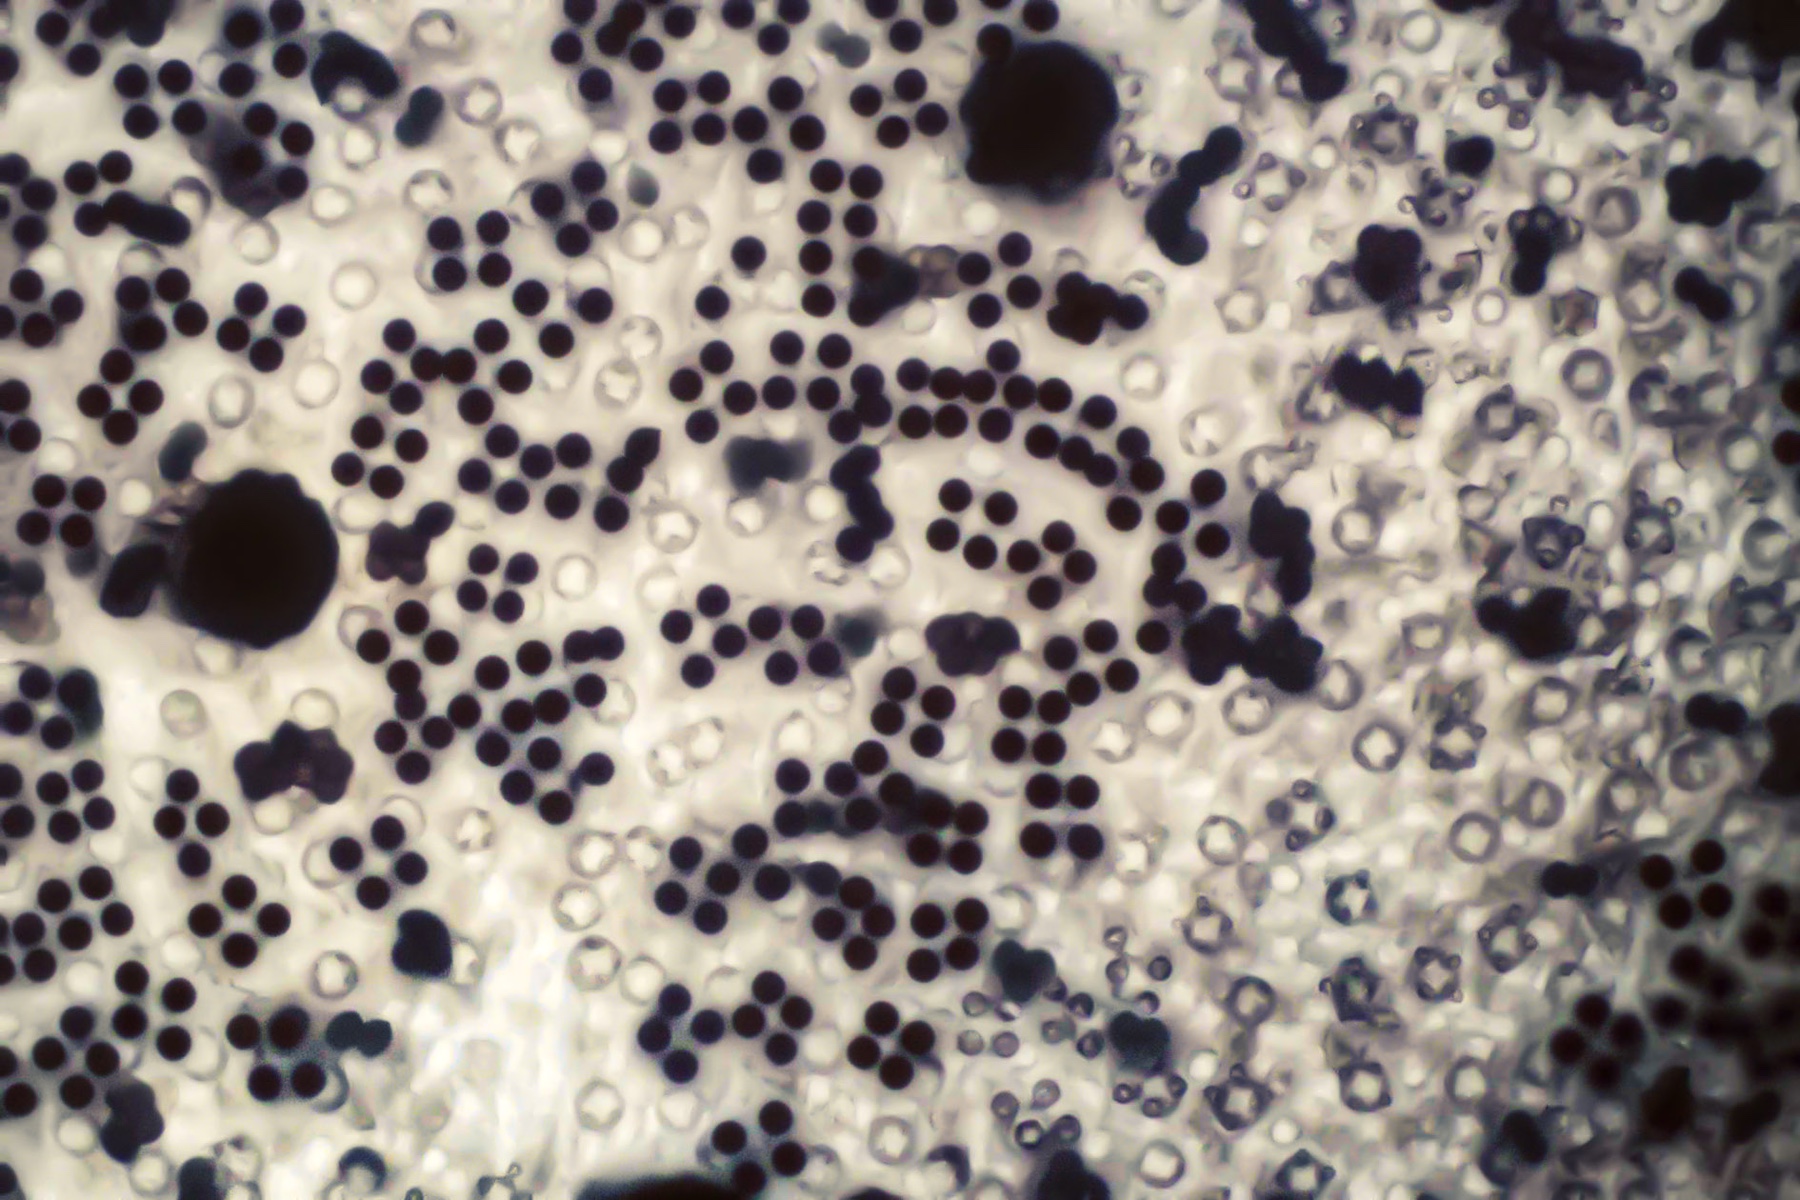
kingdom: Fungi
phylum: Basidiomycota
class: Agaricomycetes
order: Agaricales
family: Psathyrellaceae
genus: Lacrymaria
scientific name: Lacrymaria lacrymabunda
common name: grædende mørkhat
